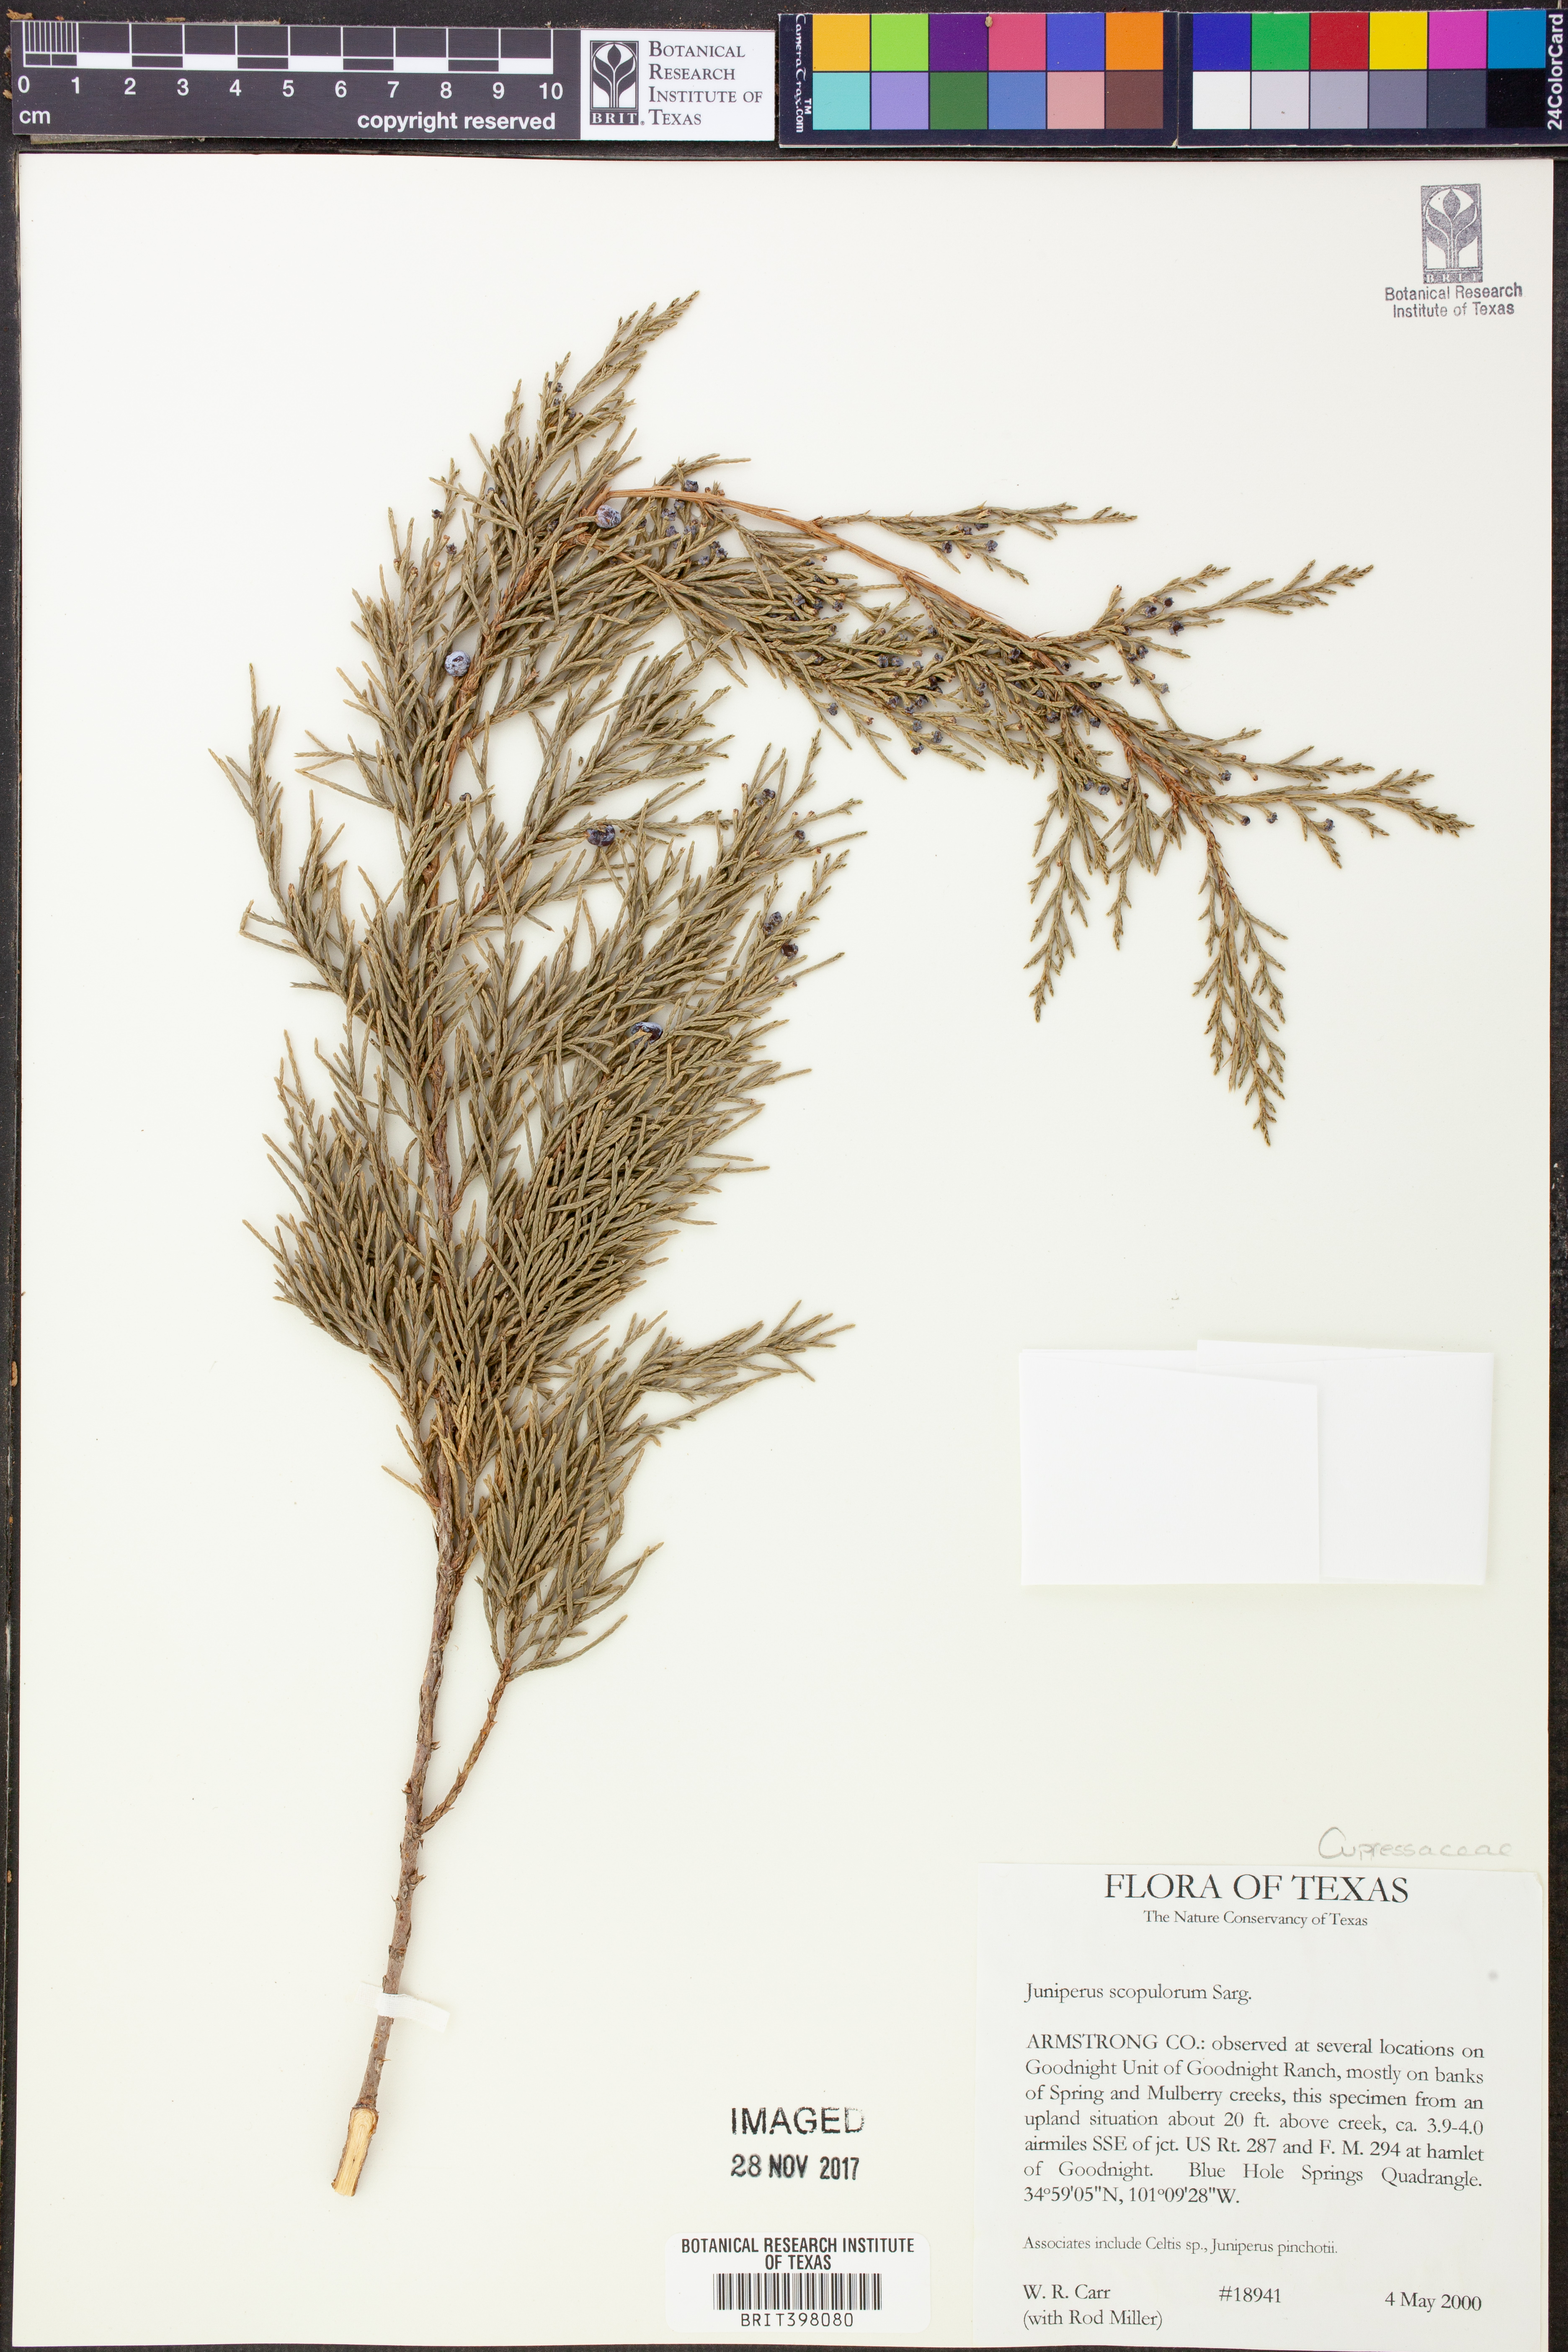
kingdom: Plantae
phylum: Tracheophyta
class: Pinopsida
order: Pinales
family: Cupressaceae
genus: Juniperus
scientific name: Juniperus scopulorum
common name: Rocky mountain juniper
